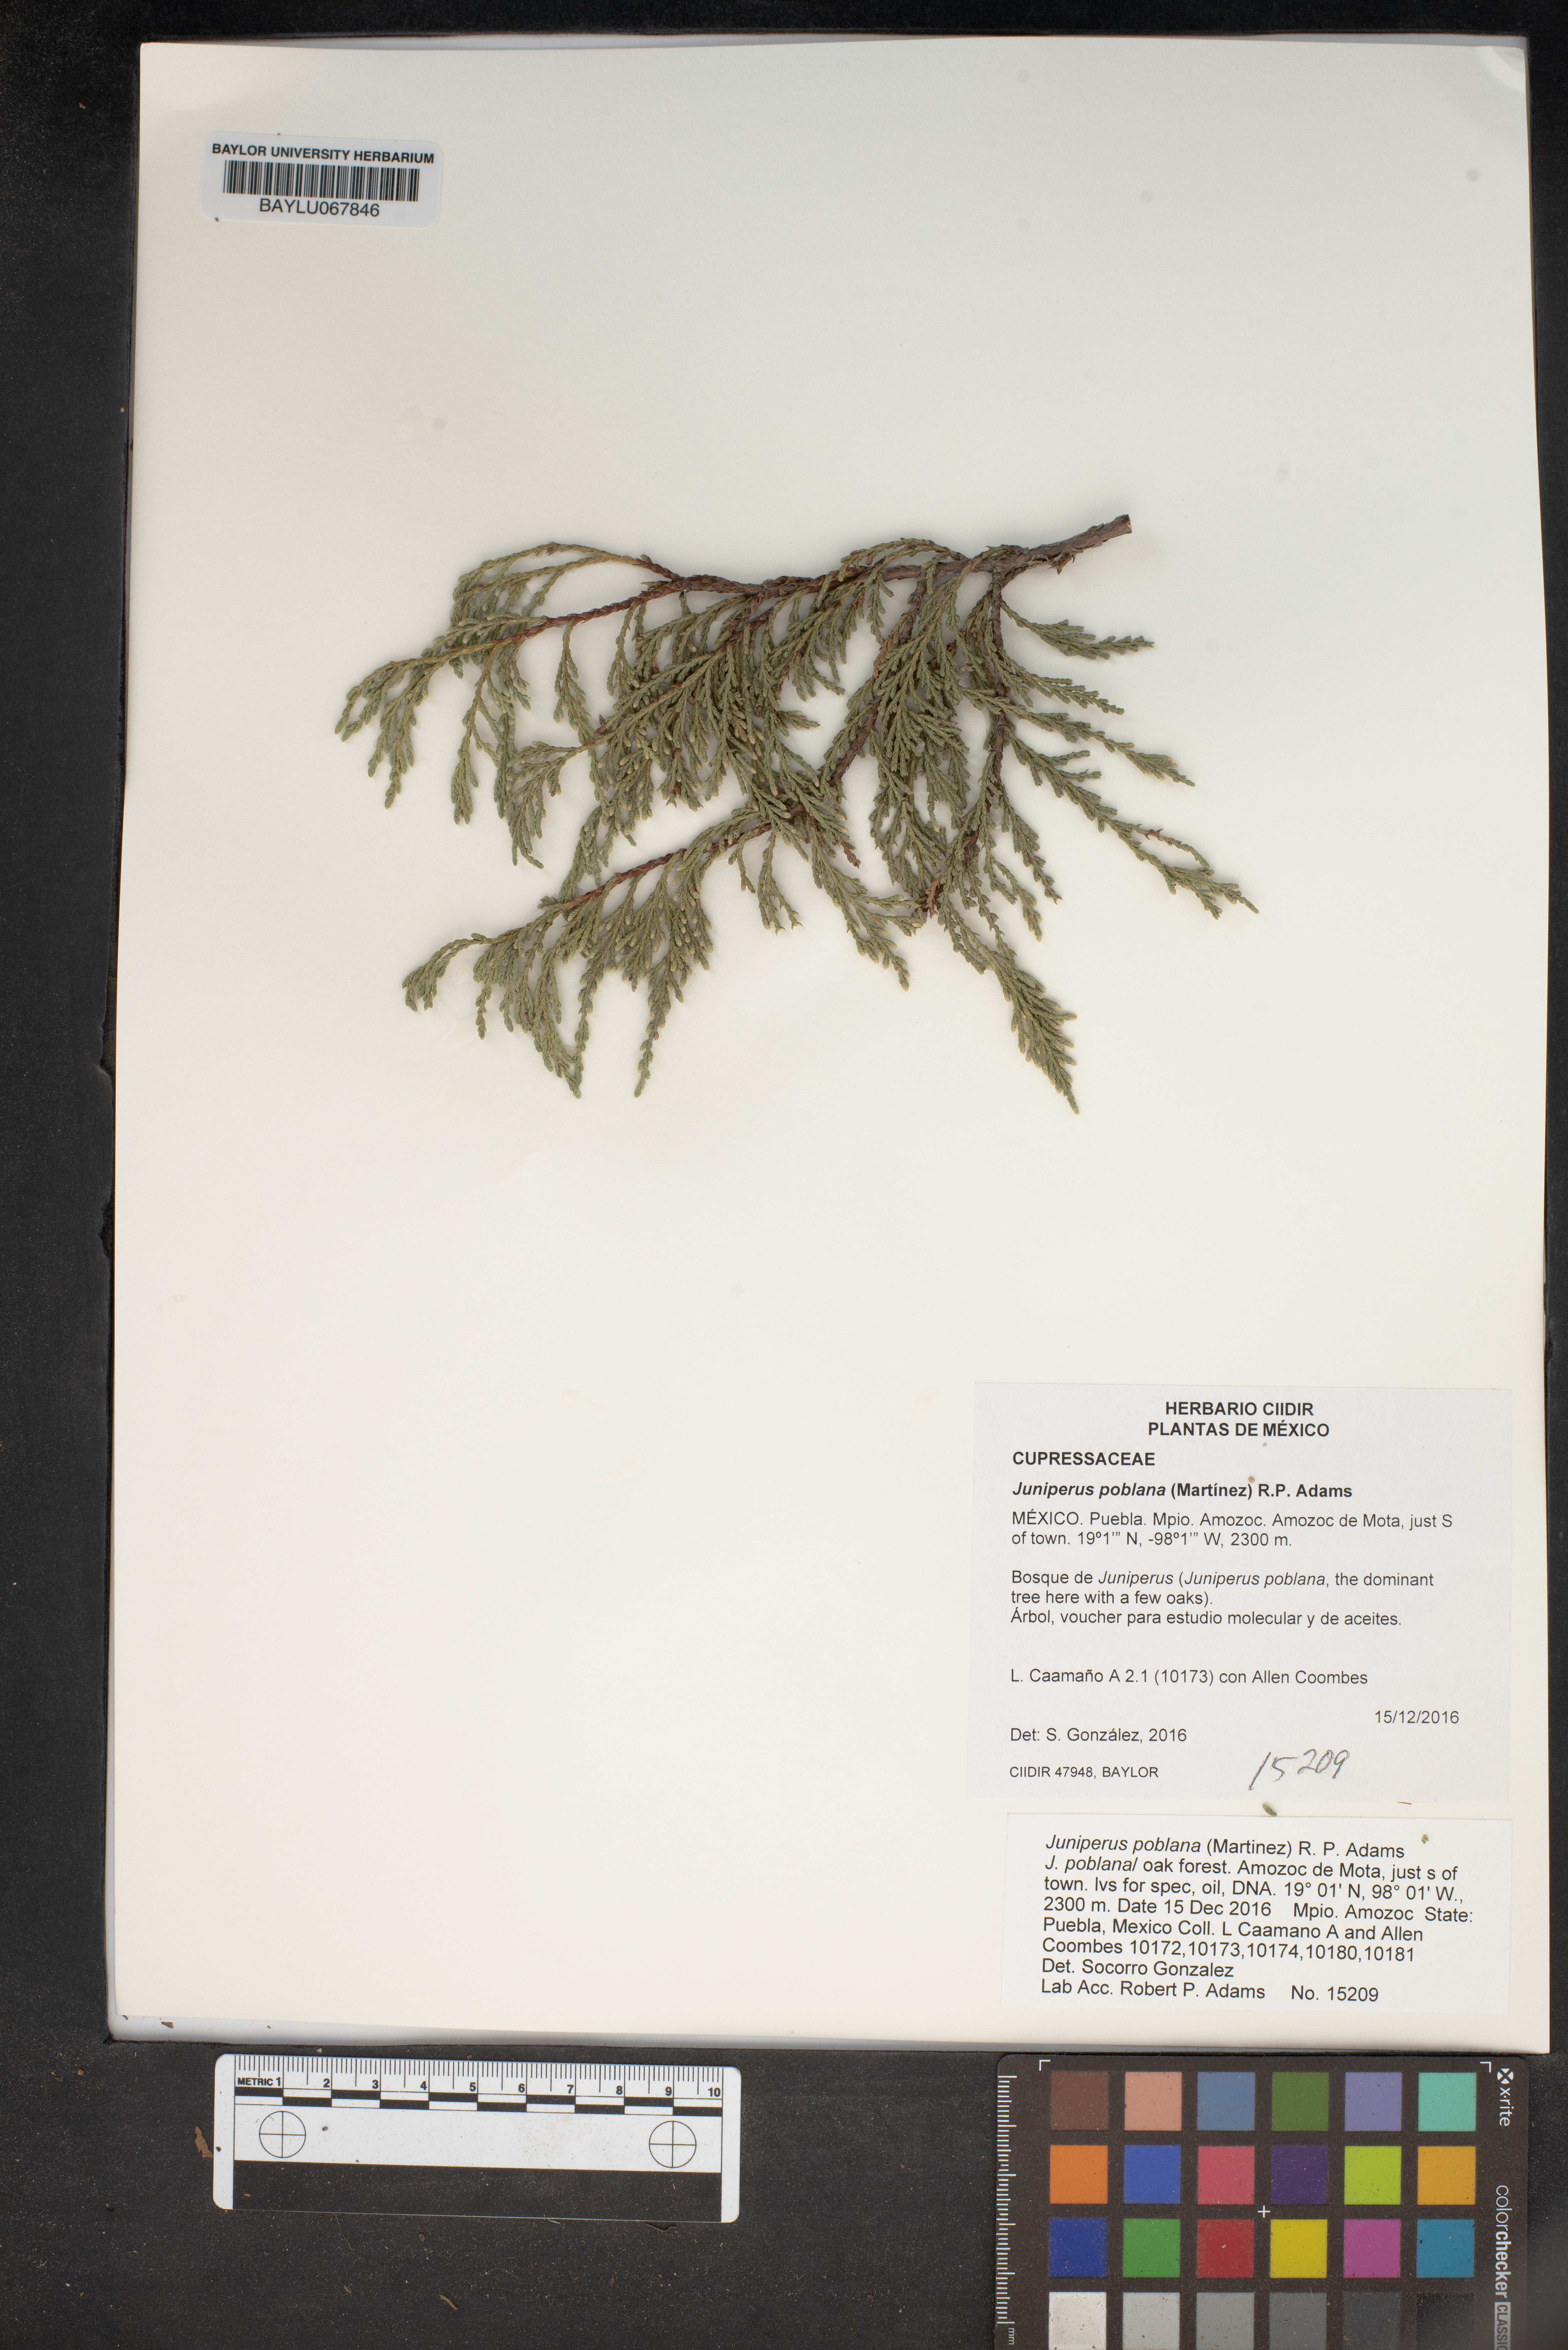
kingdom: Plantae
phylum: Tracheophyta
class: Pinopsida
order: Pinales
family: Cupressaceae
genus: Juniperus
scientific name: Juniperus flaccida
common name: Drooping juniper
